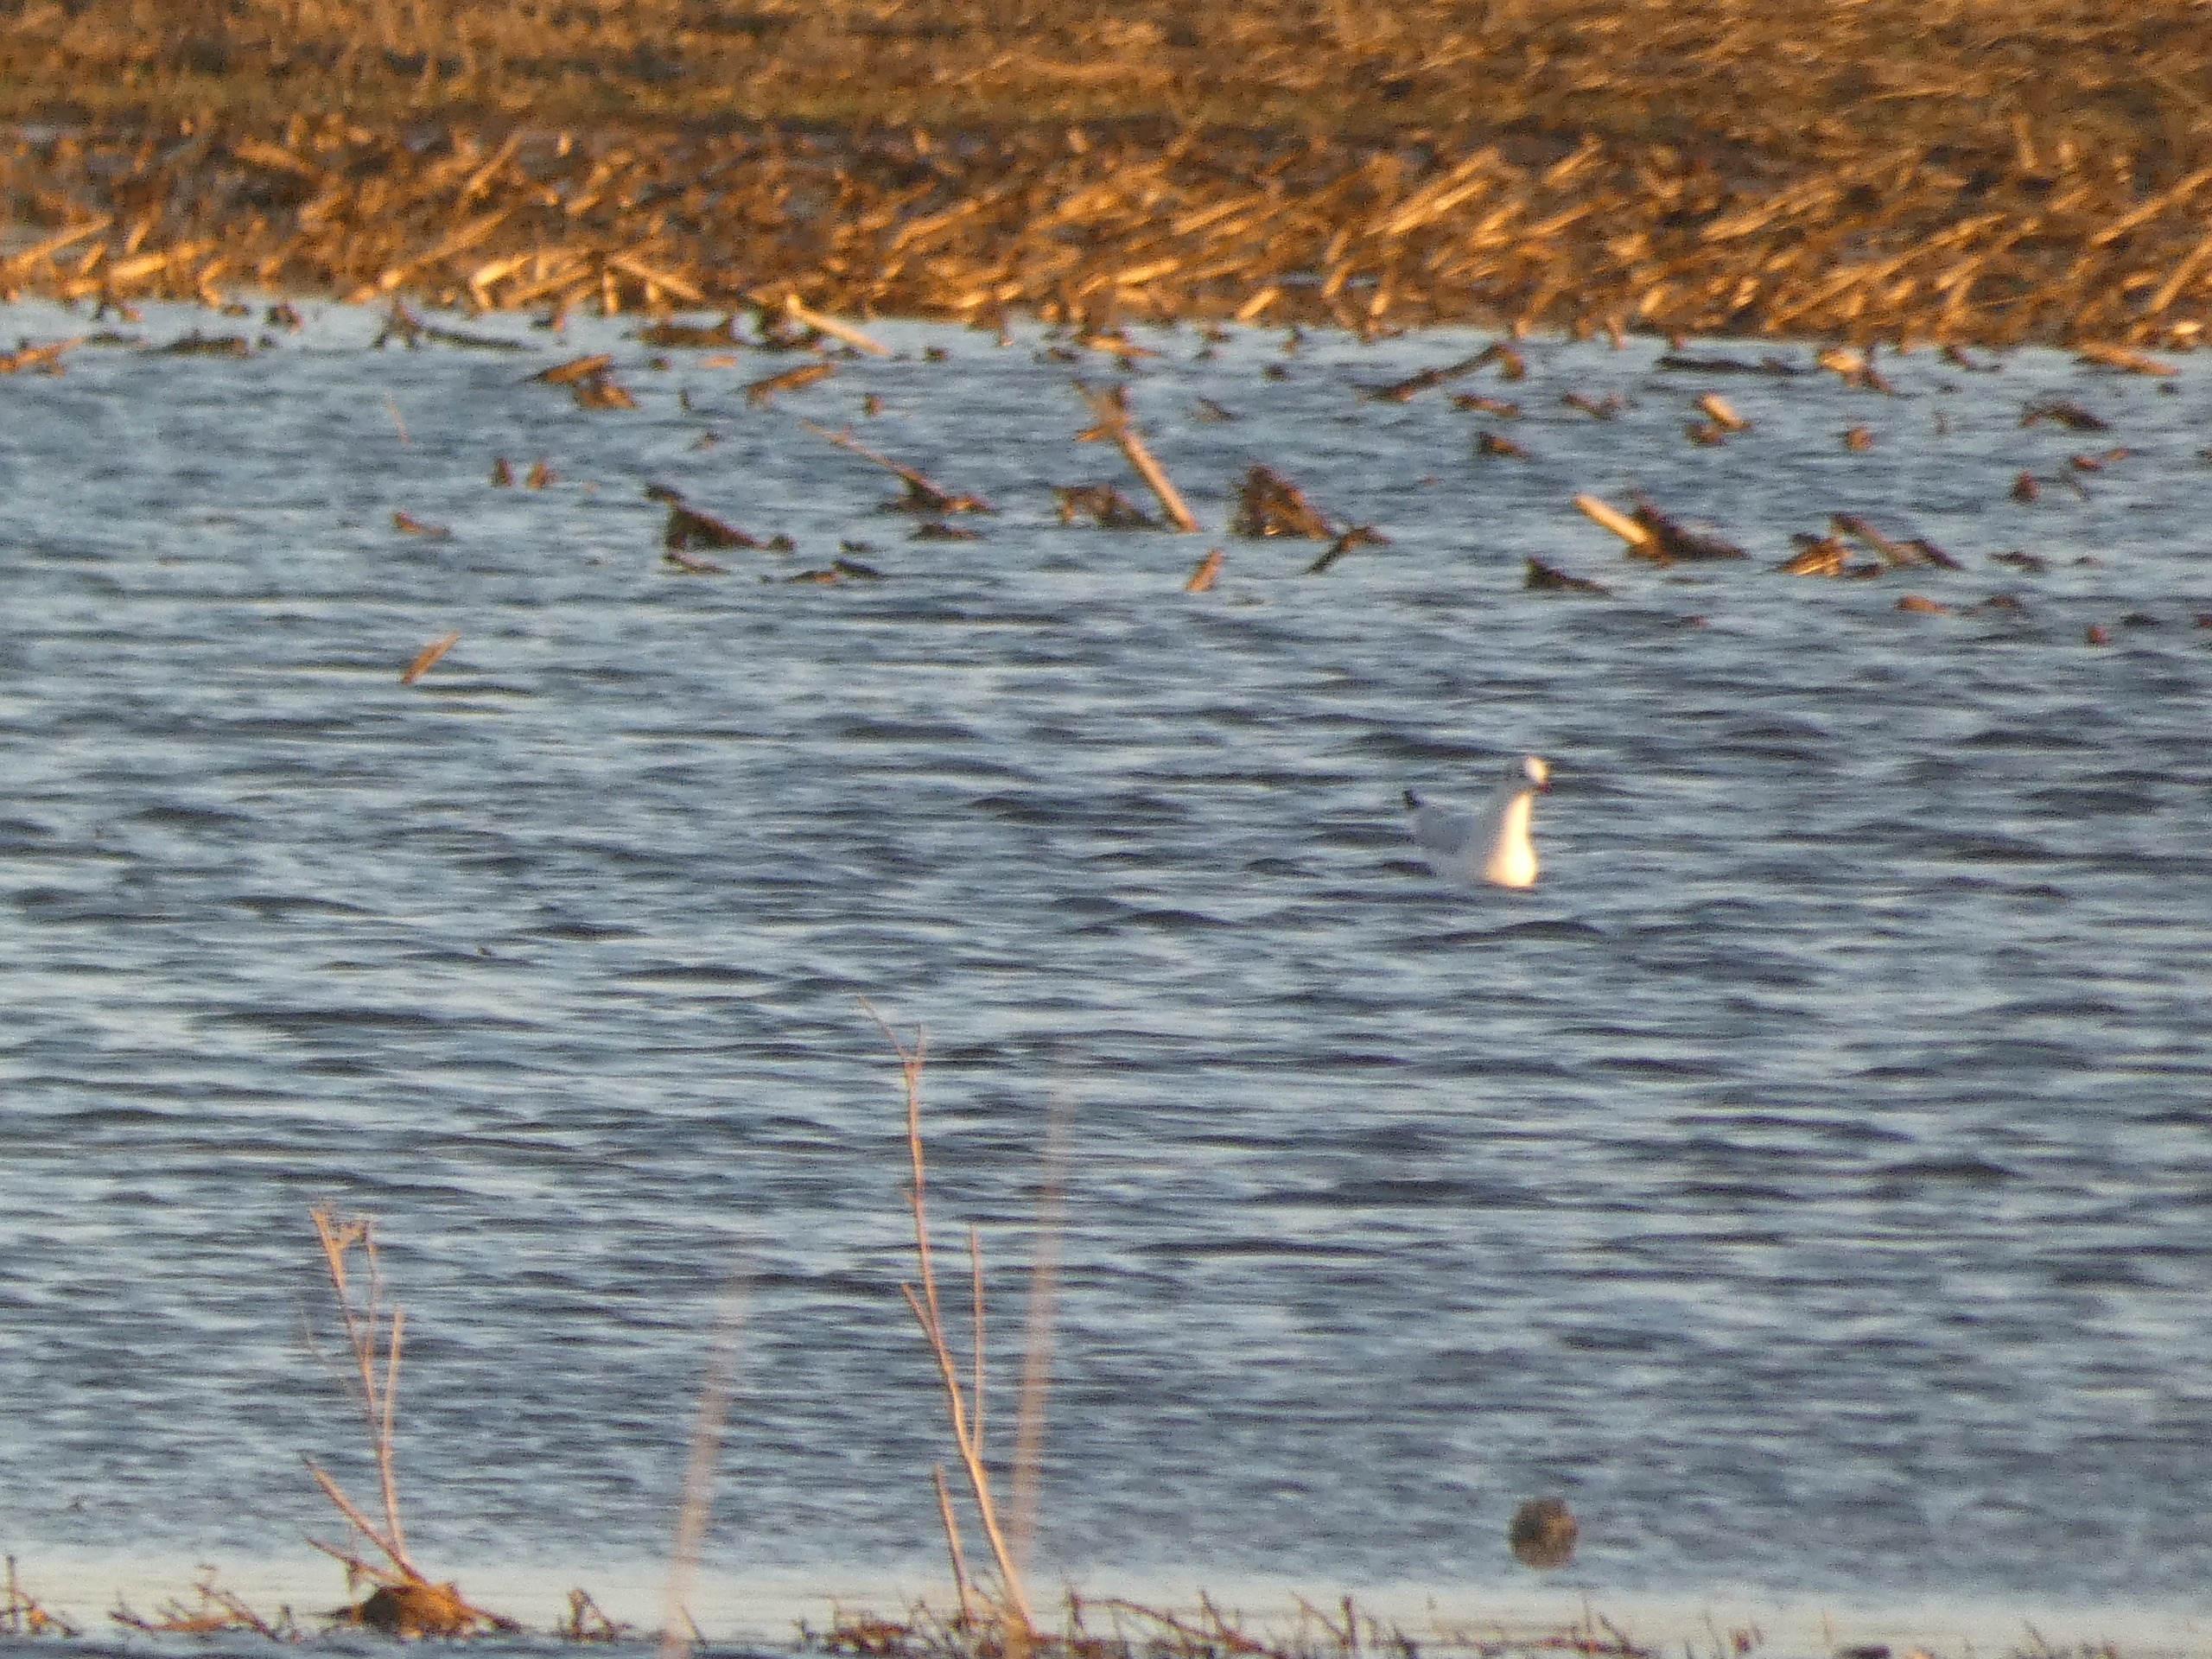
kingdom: Animalia
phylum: Chordata
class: Aves
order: Charadriiformes
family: Laridae
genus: Chroicocephalus
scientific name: Chroicocephalus ridibundus
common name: Hættemåge
